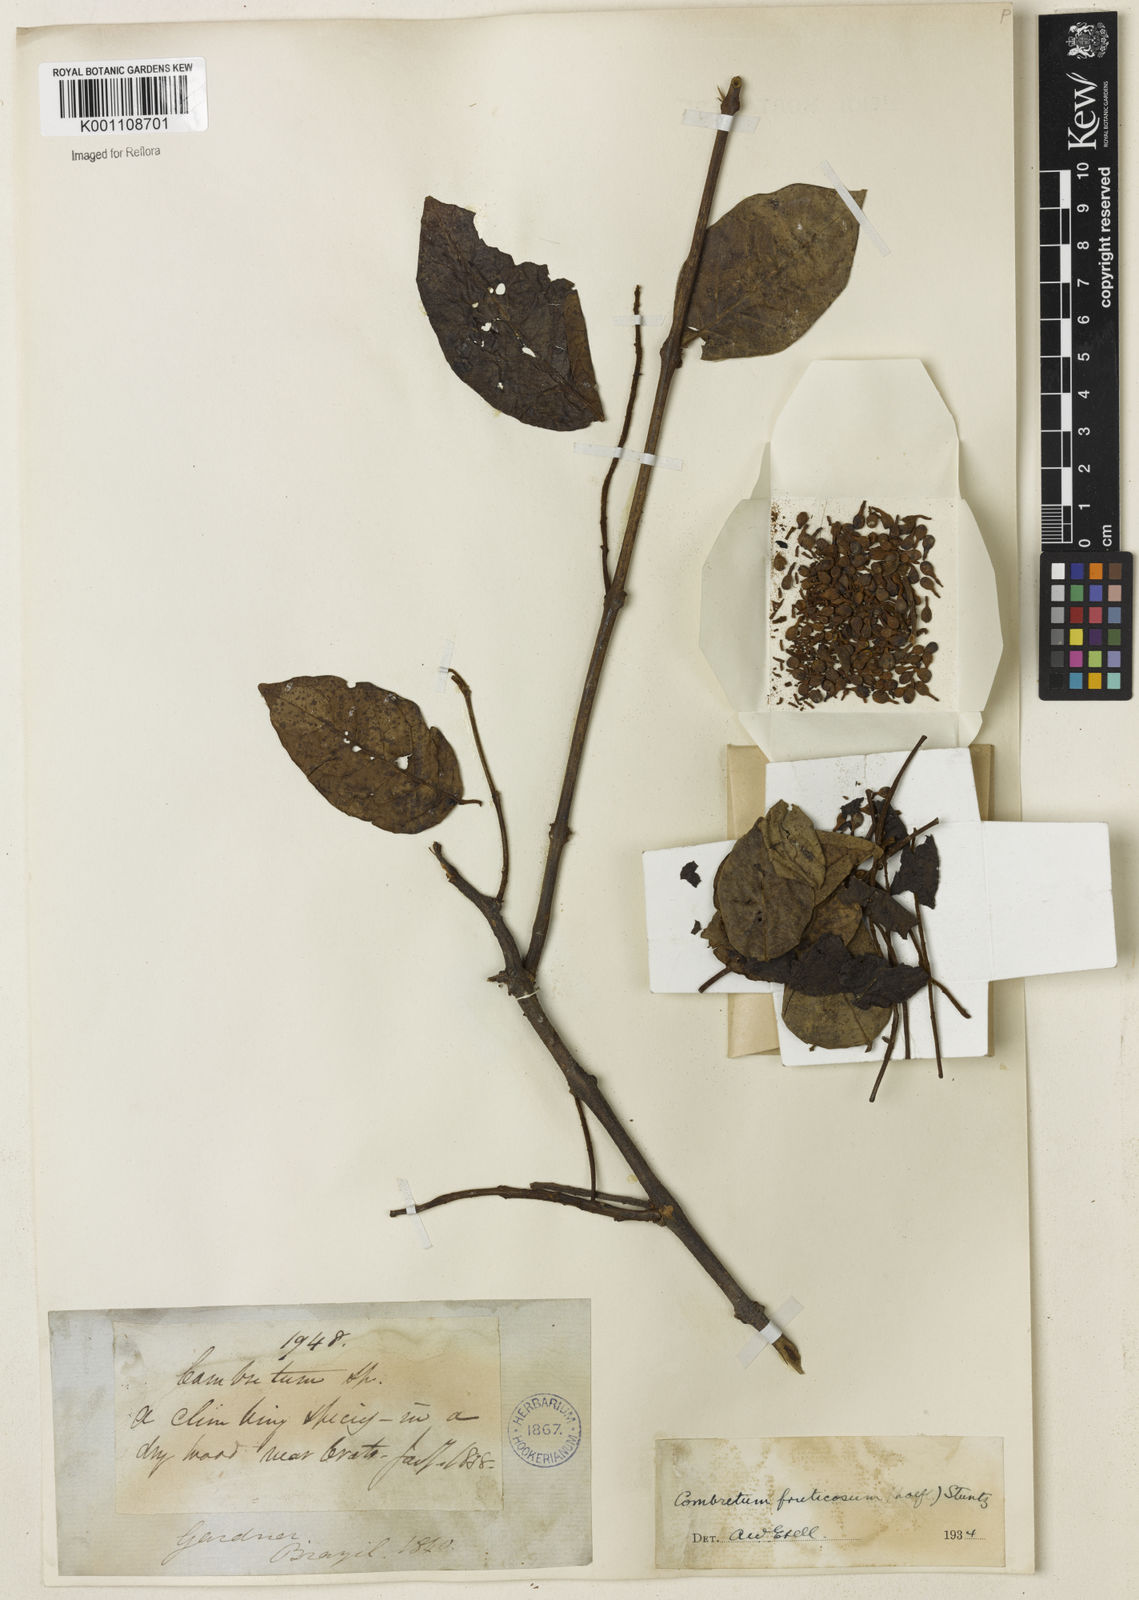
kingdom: Plantae
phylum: Tracheophyta
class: Magnoliopsida
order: Myrtales
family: Combretaceae
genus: Combretum
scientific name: Combretum fruticosum
